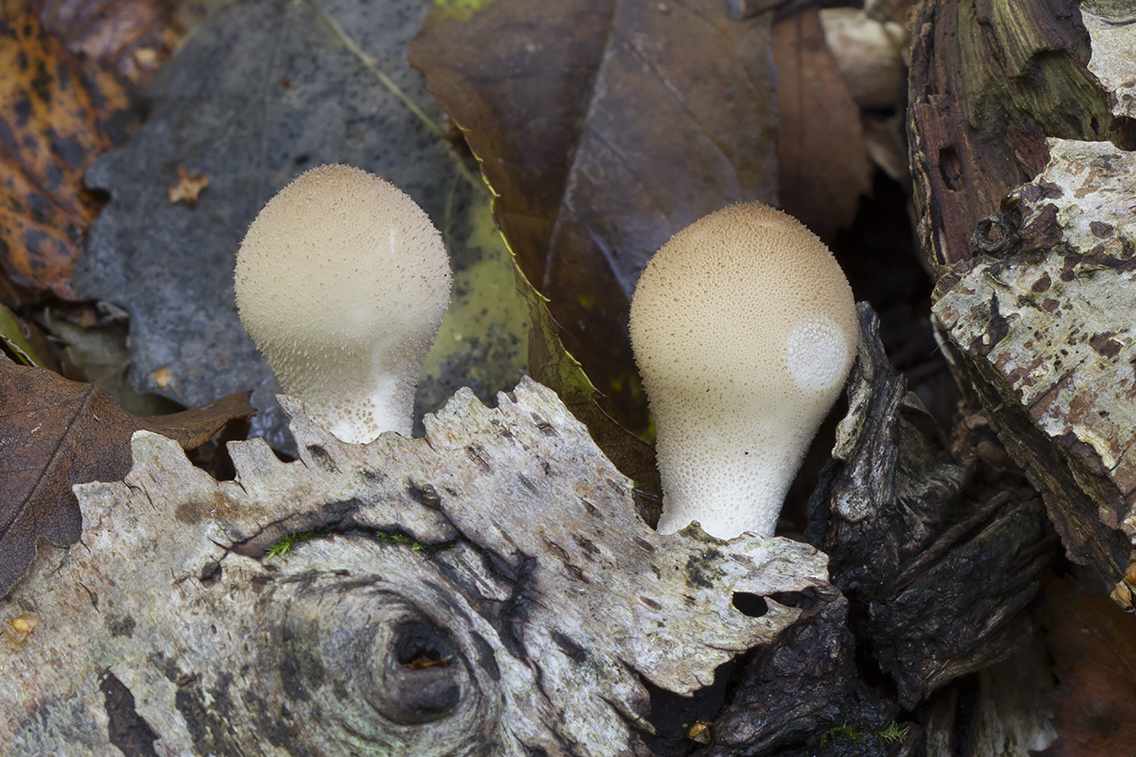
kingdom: Fungi
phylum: Basidiomycota
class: Agaricomycetes
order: Agaricales
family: Lycoperdaceae
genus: Apioperdon
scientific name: Apioperdon pyriforme
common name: pære-støvbold
